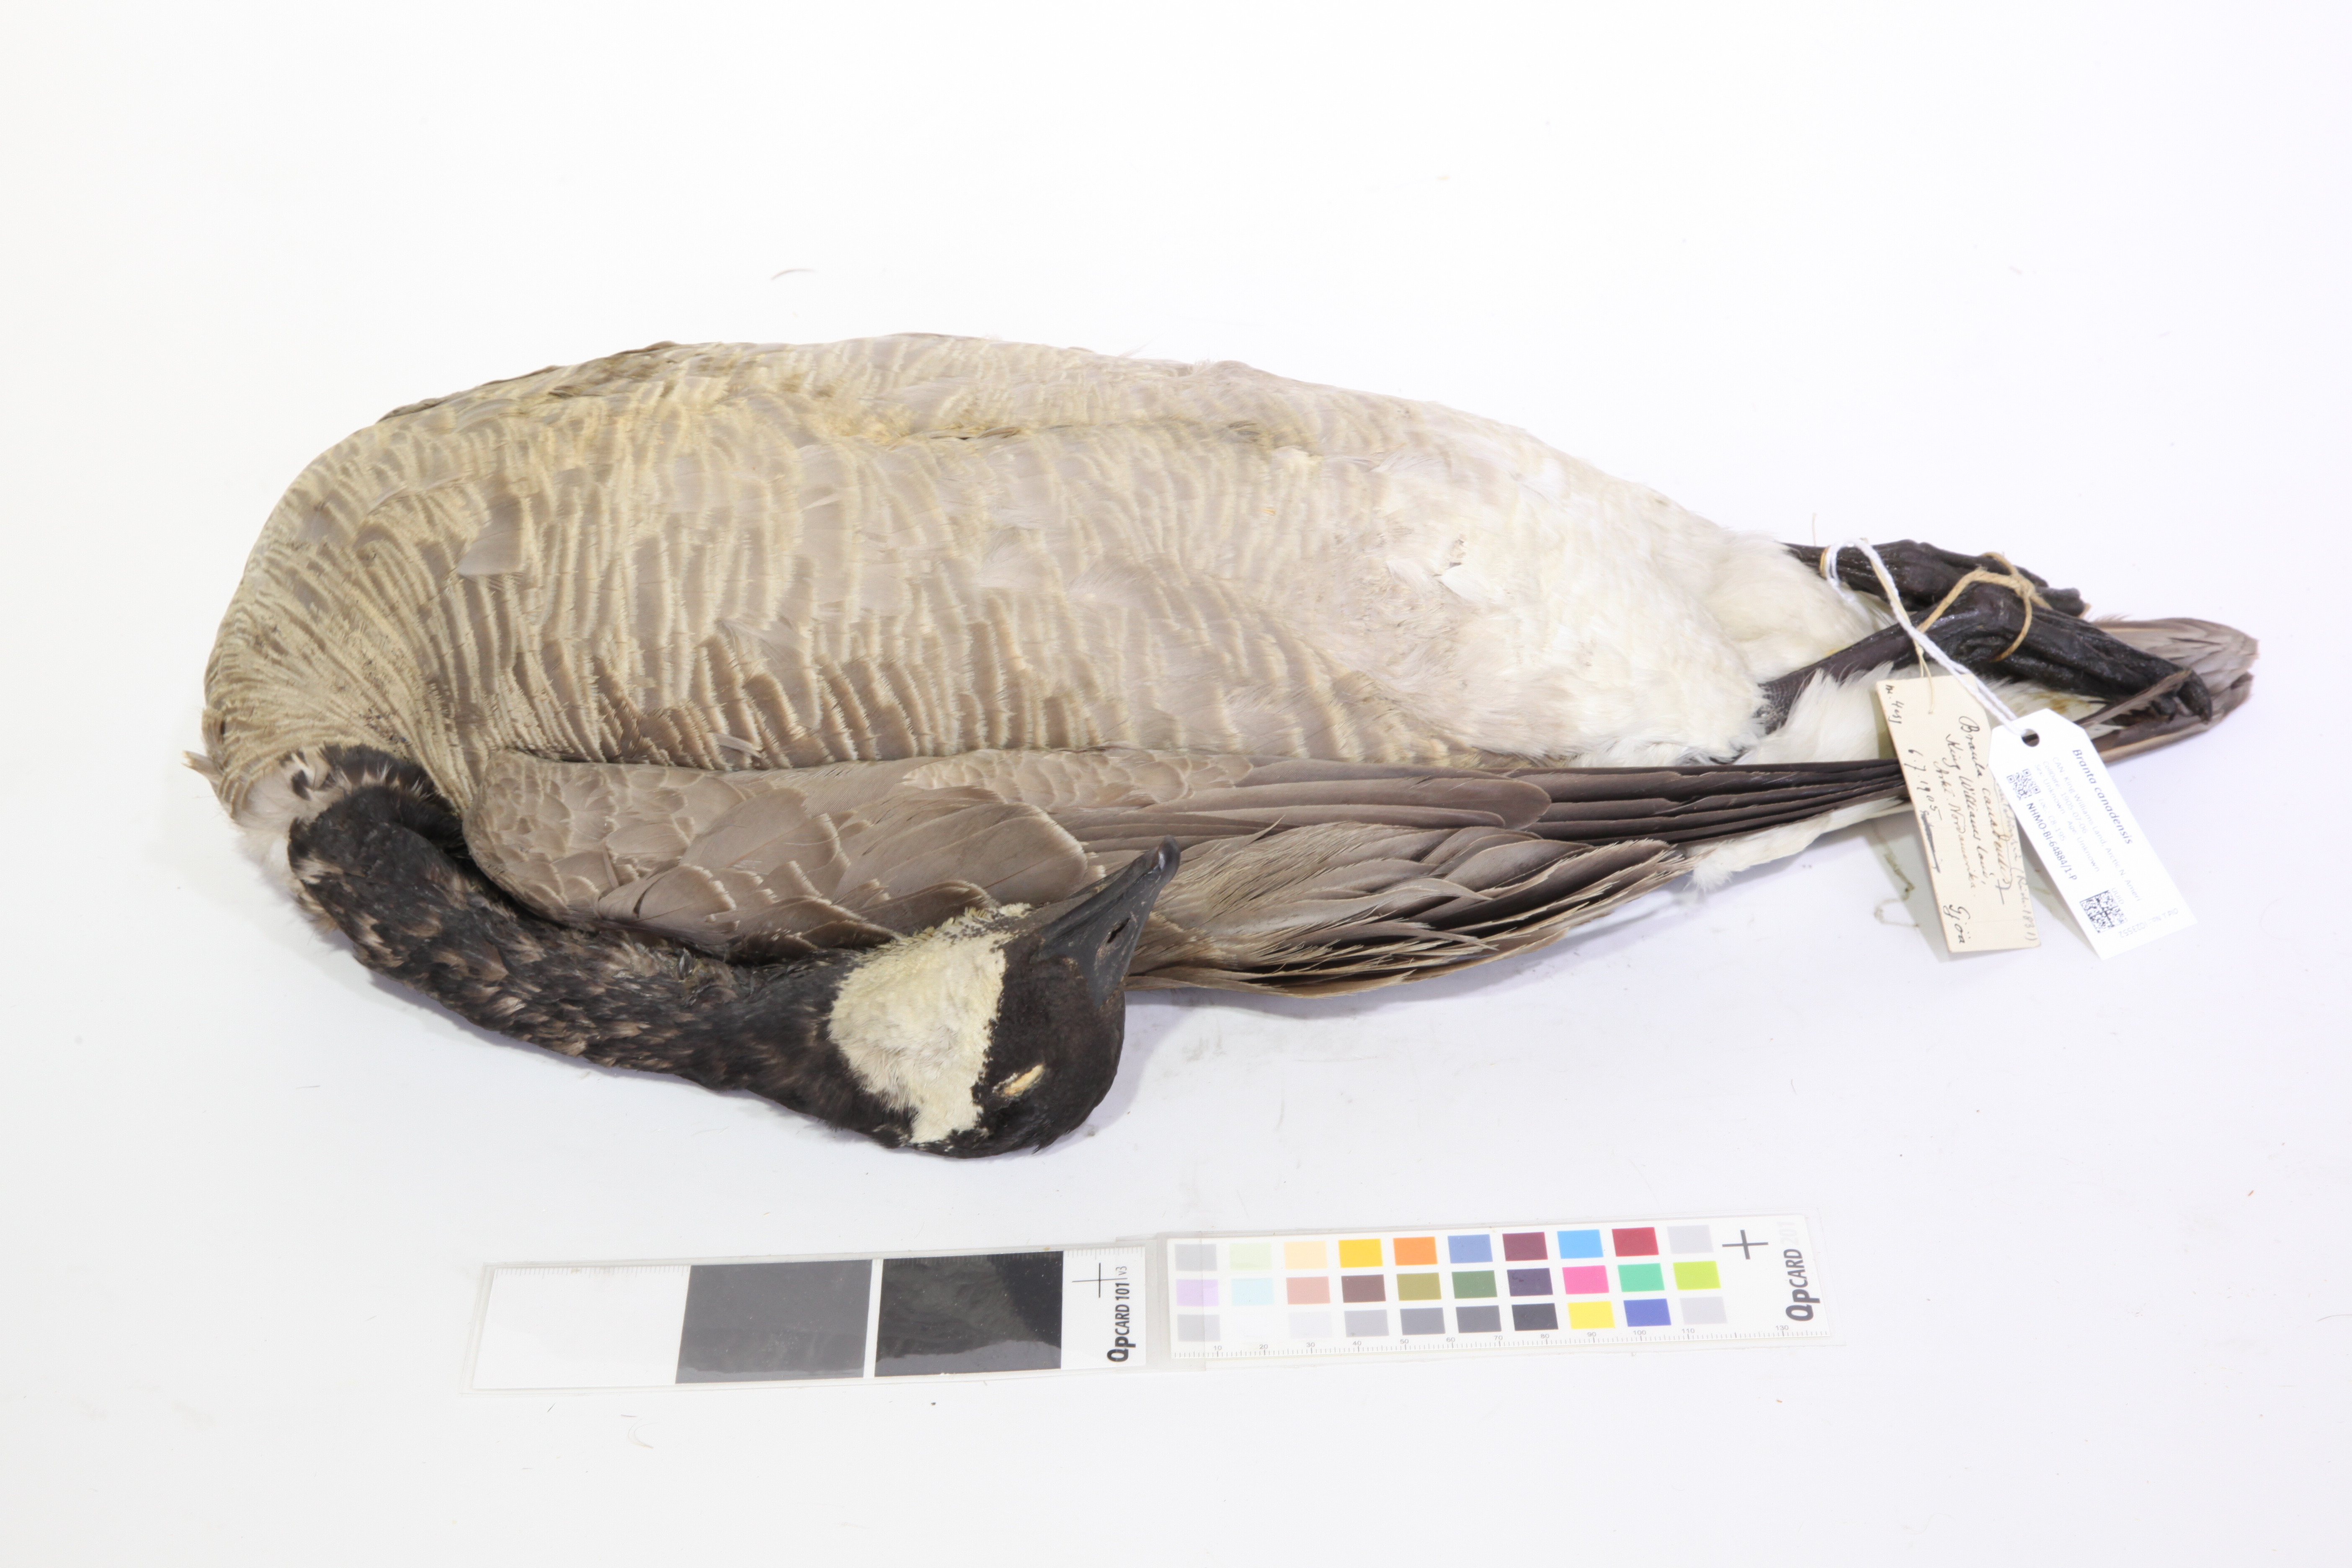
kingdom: Animalia
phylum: Chordata
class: Aves
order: Anseriformes
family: Anatidae
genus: Branta
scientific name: Branta canadensis
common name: Canada goose
